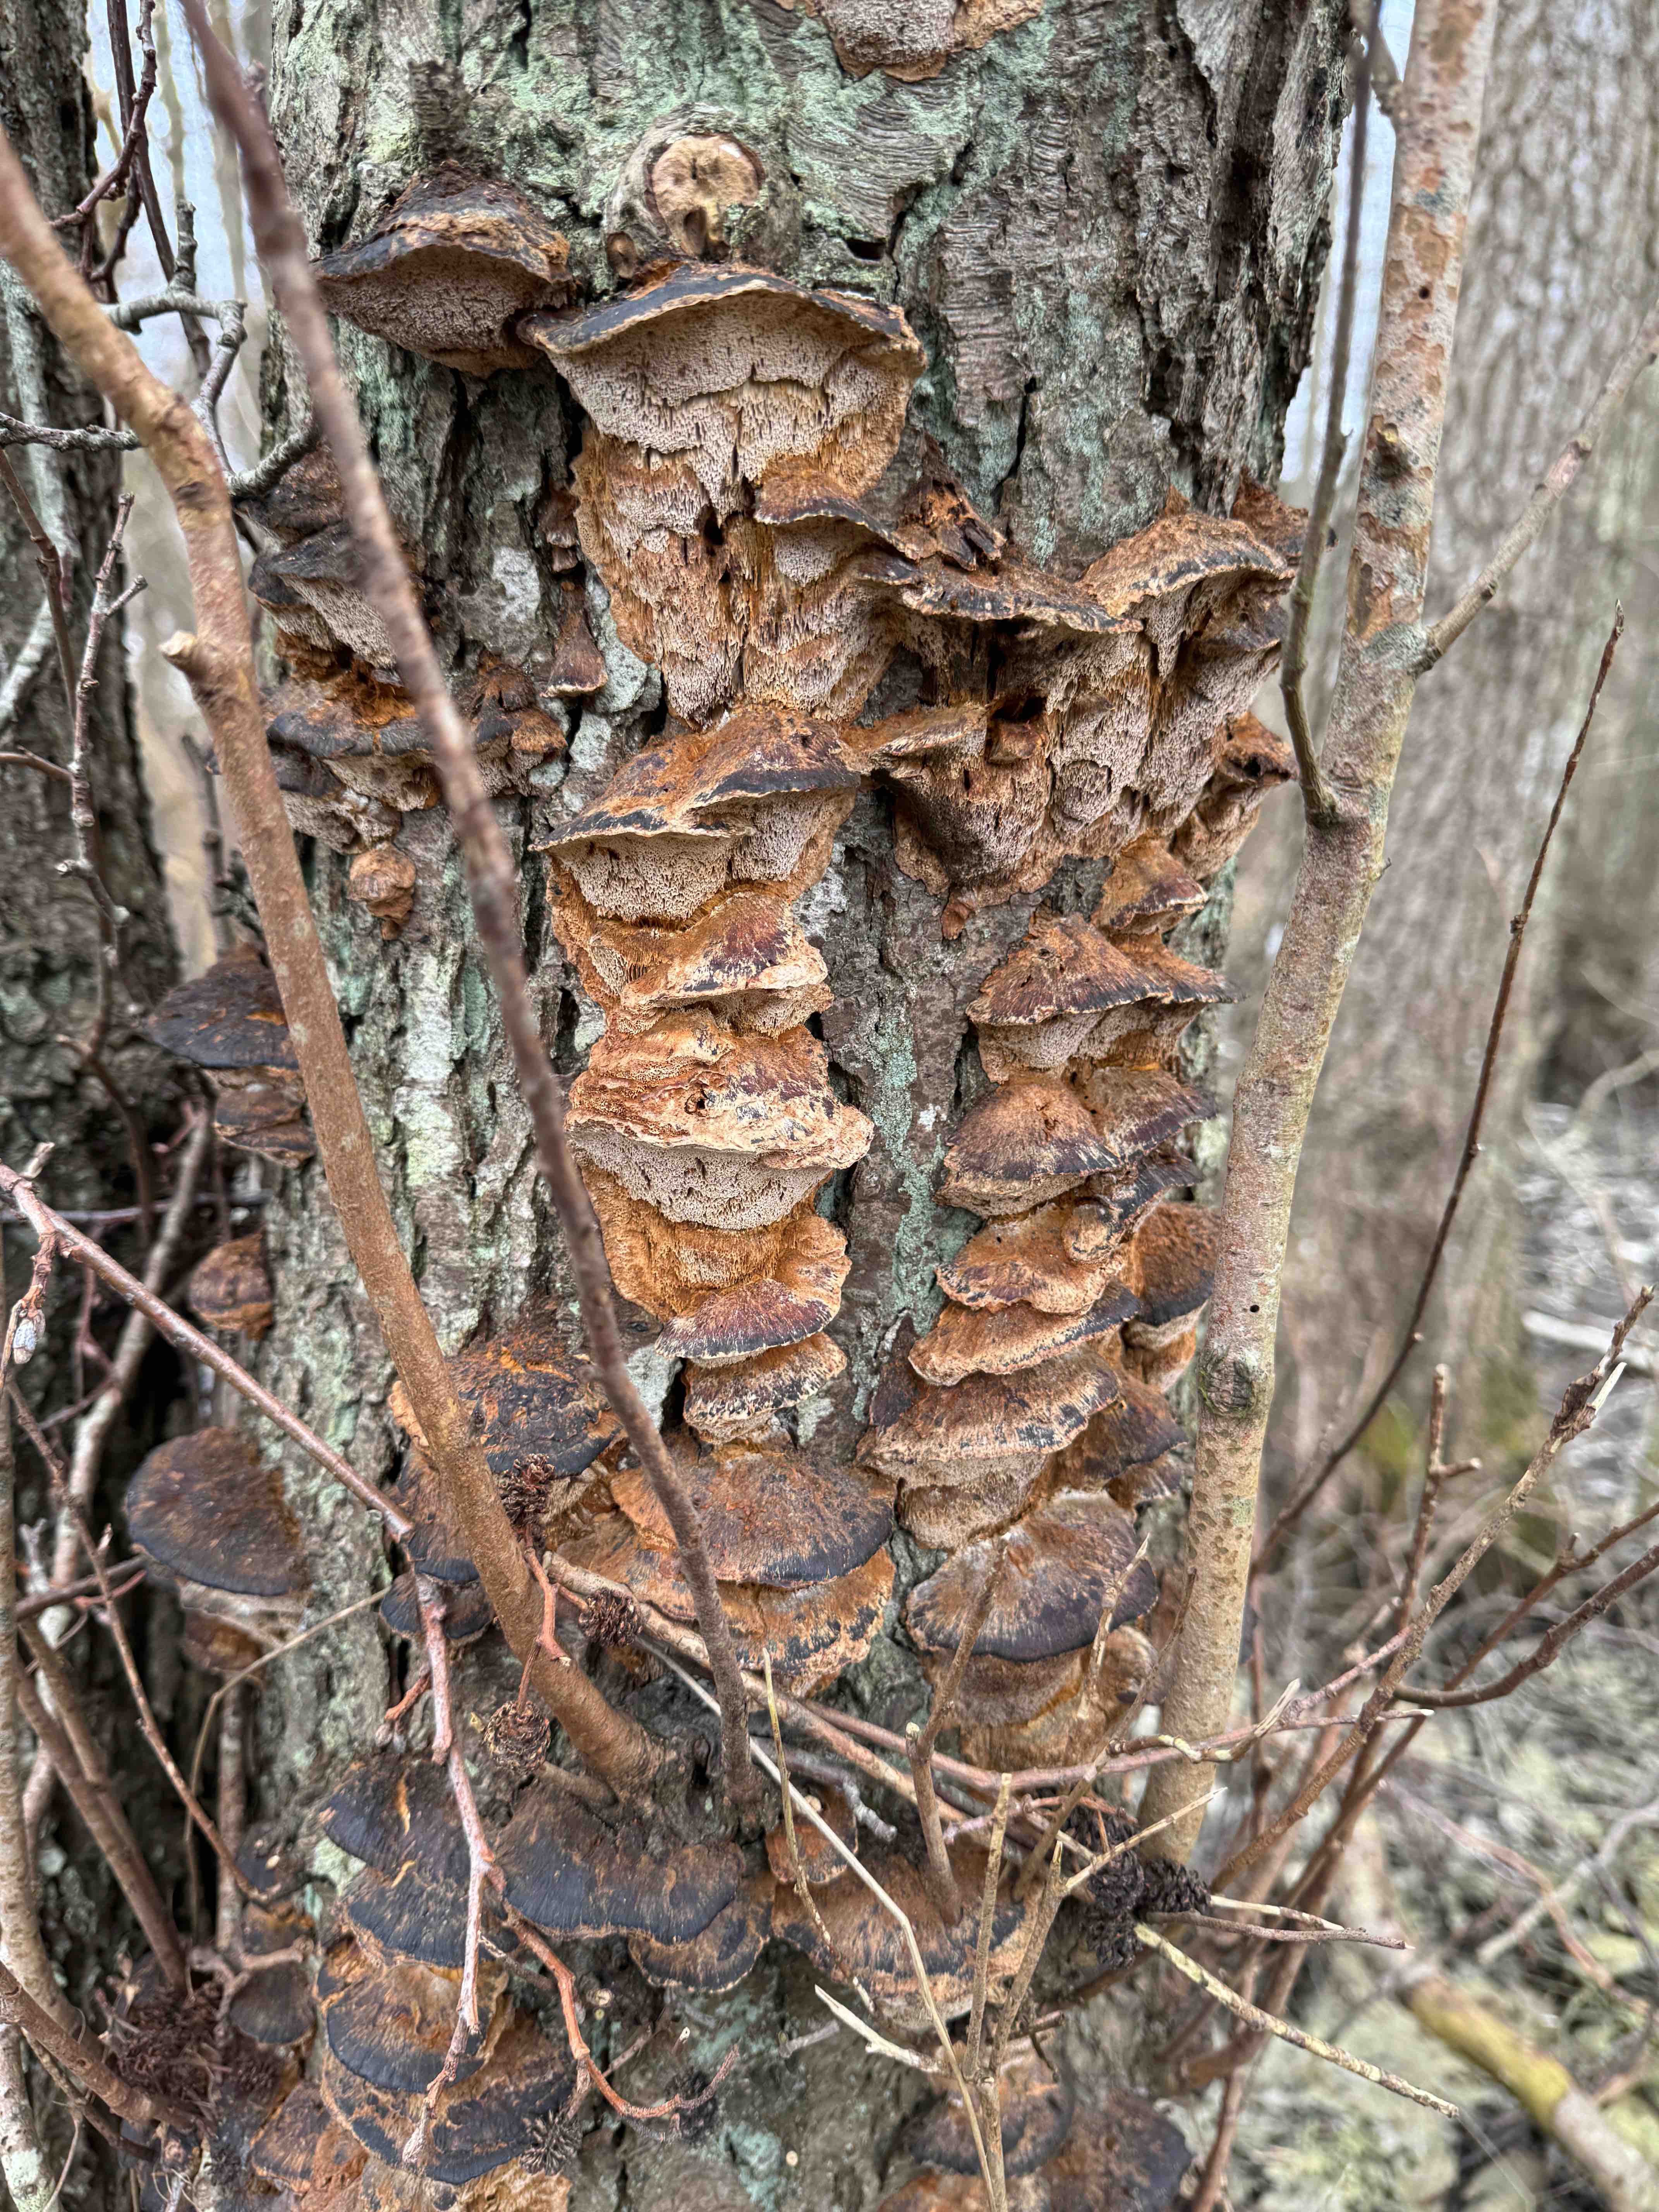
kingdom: Fungi
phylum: Basidiomycota
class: Agaricomycetes
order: Hymenochaetales
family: Hymenochaetaceae
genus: Xanthoporia
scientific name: Xanthoporia radiata
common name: elle-spejlporesvamp
